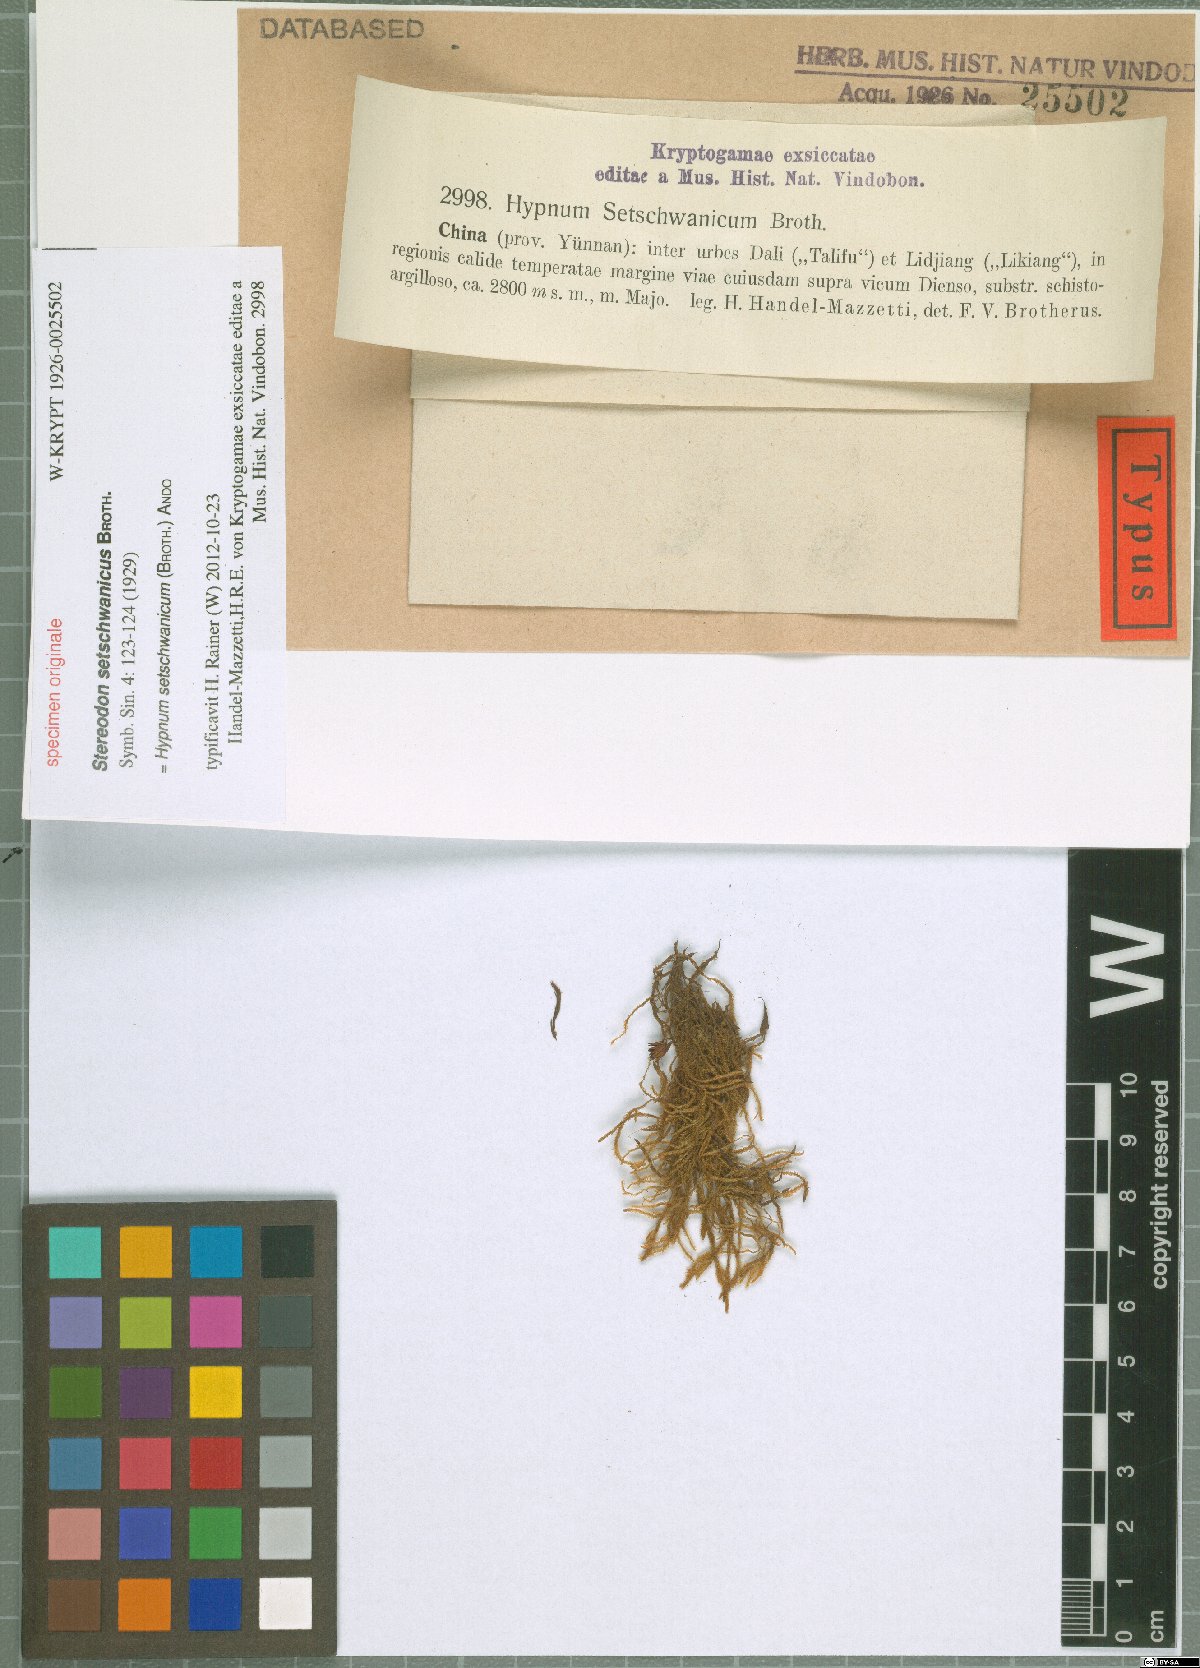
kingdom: Plantae
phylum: Bryophyta
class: Bryopsida
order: Hypnales
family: Hypnaceae
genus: Hypnum
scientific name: Hypnum setschwanicum
